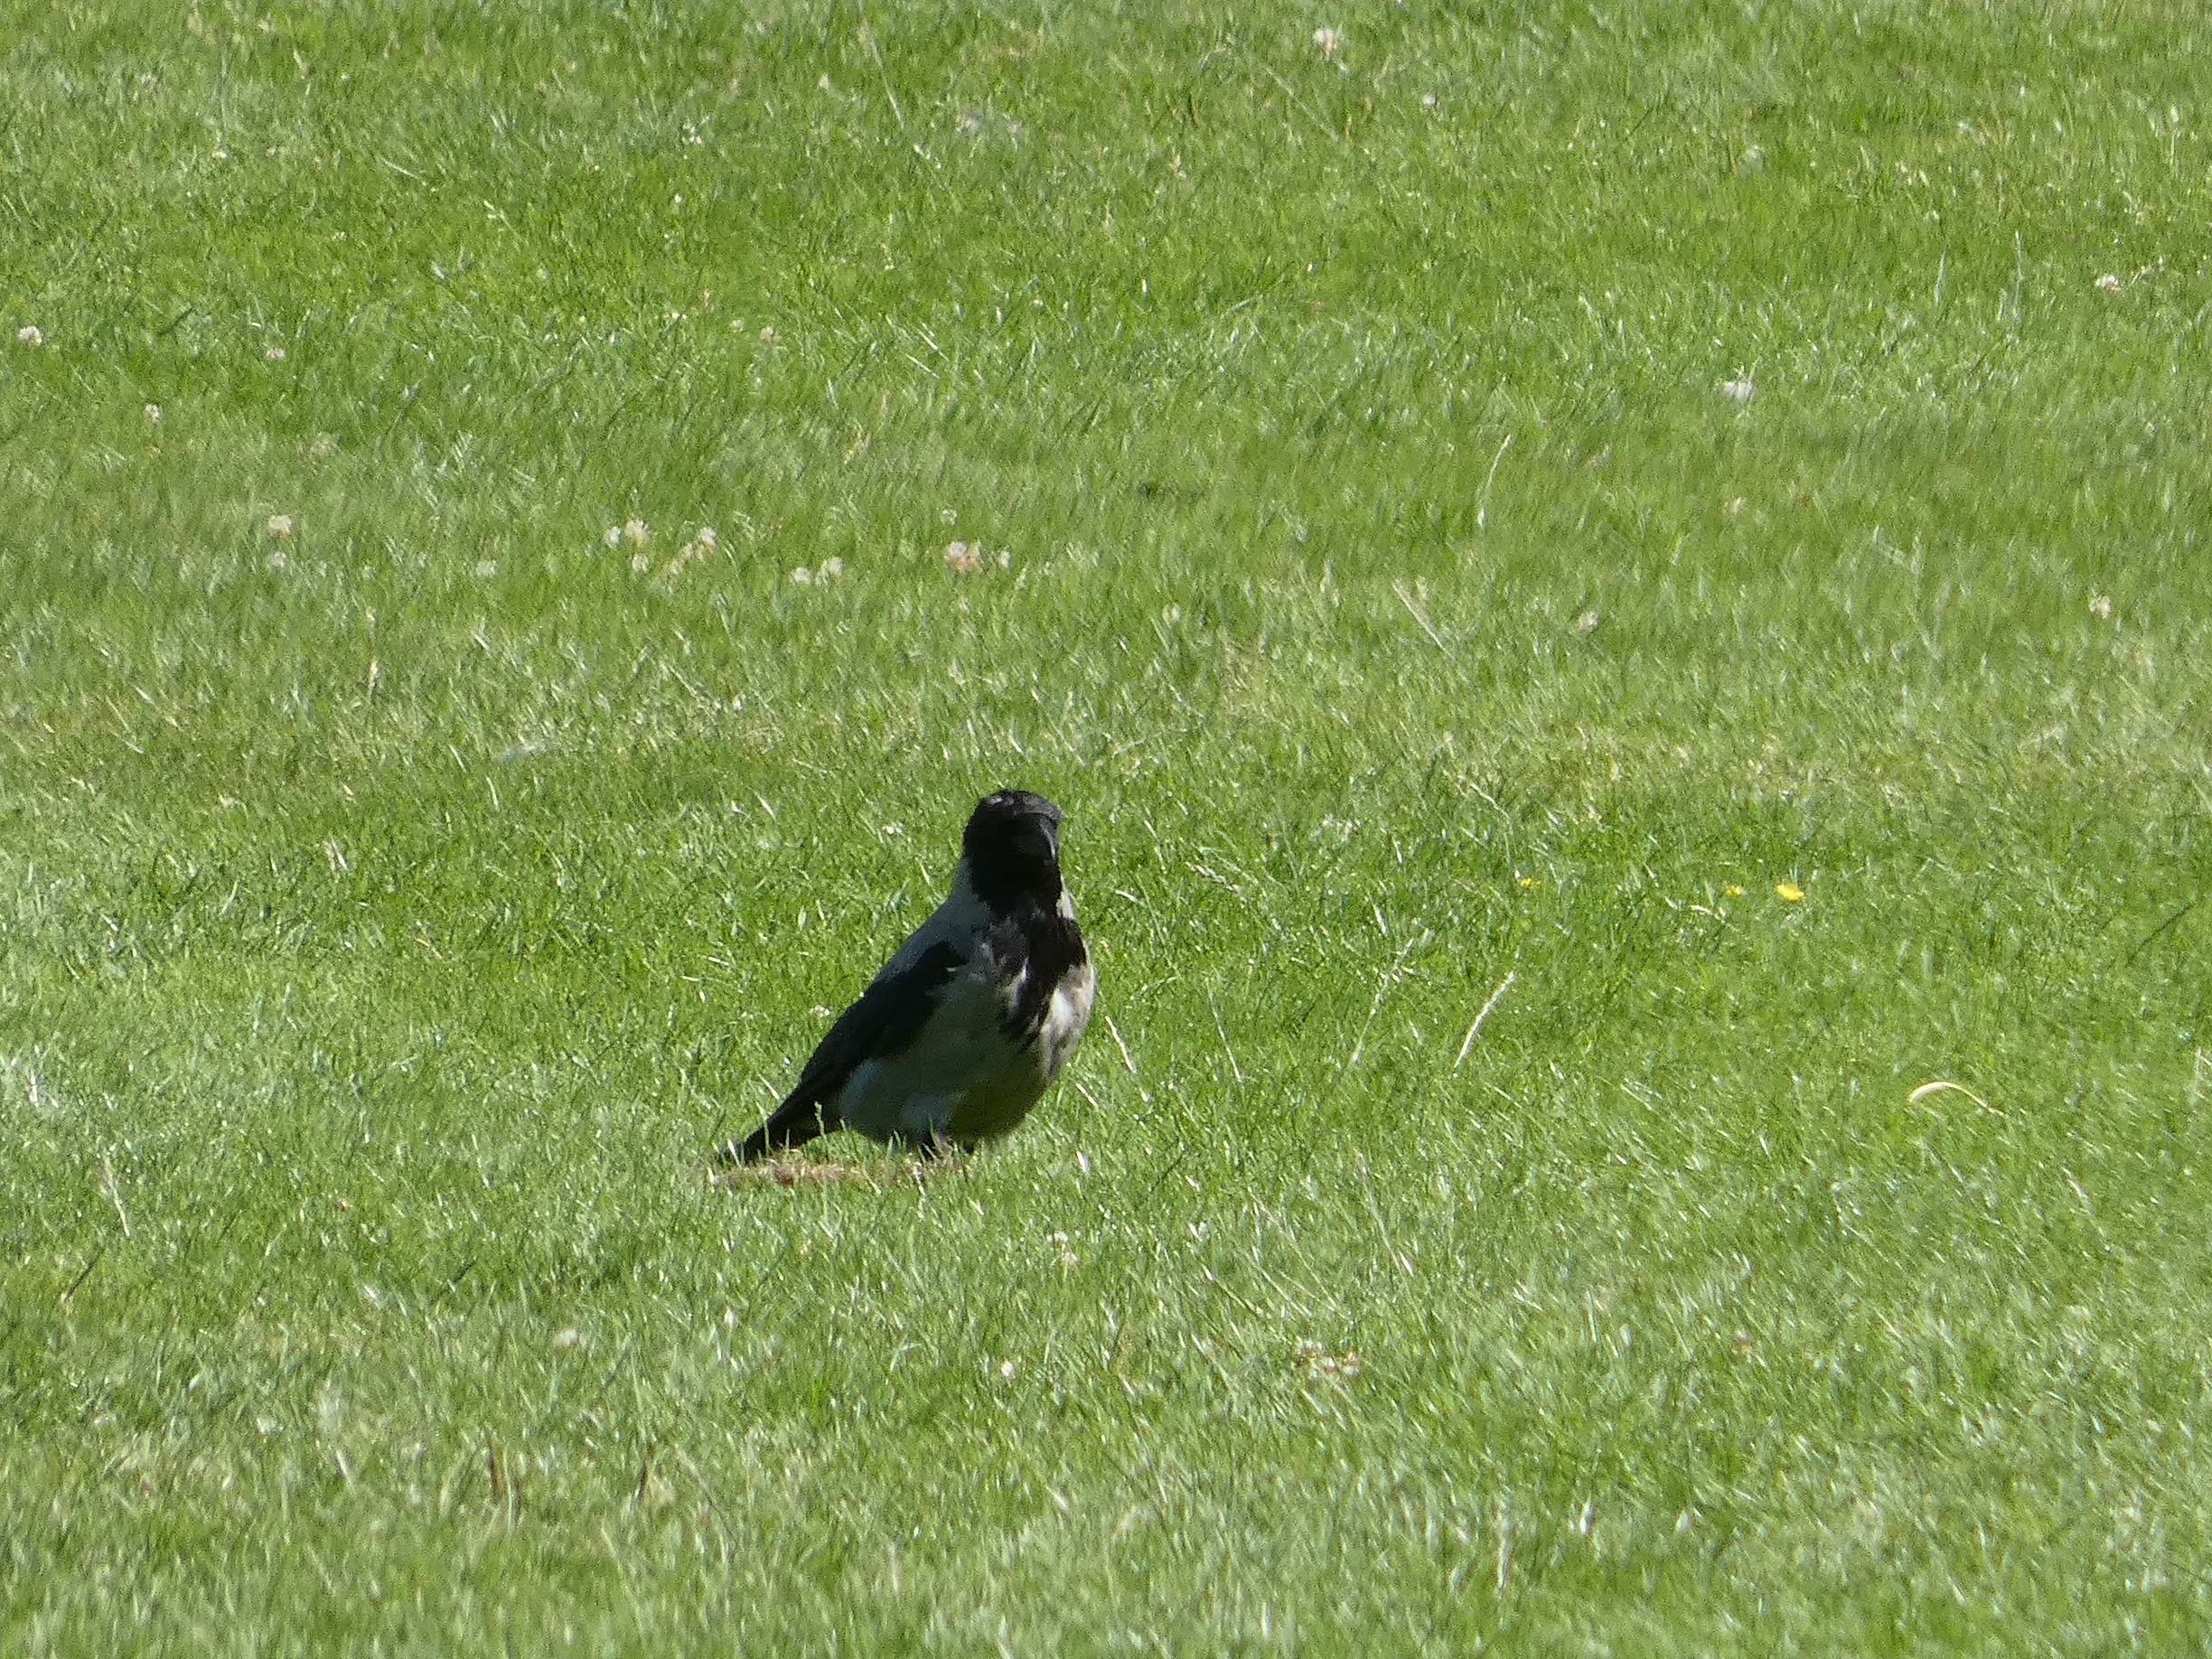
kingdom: Animalia
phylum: Chordata
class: Aves
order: Passeriformes
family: Corvidae
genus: Corvus
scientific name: Corvus cornix
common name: Gråkrage
